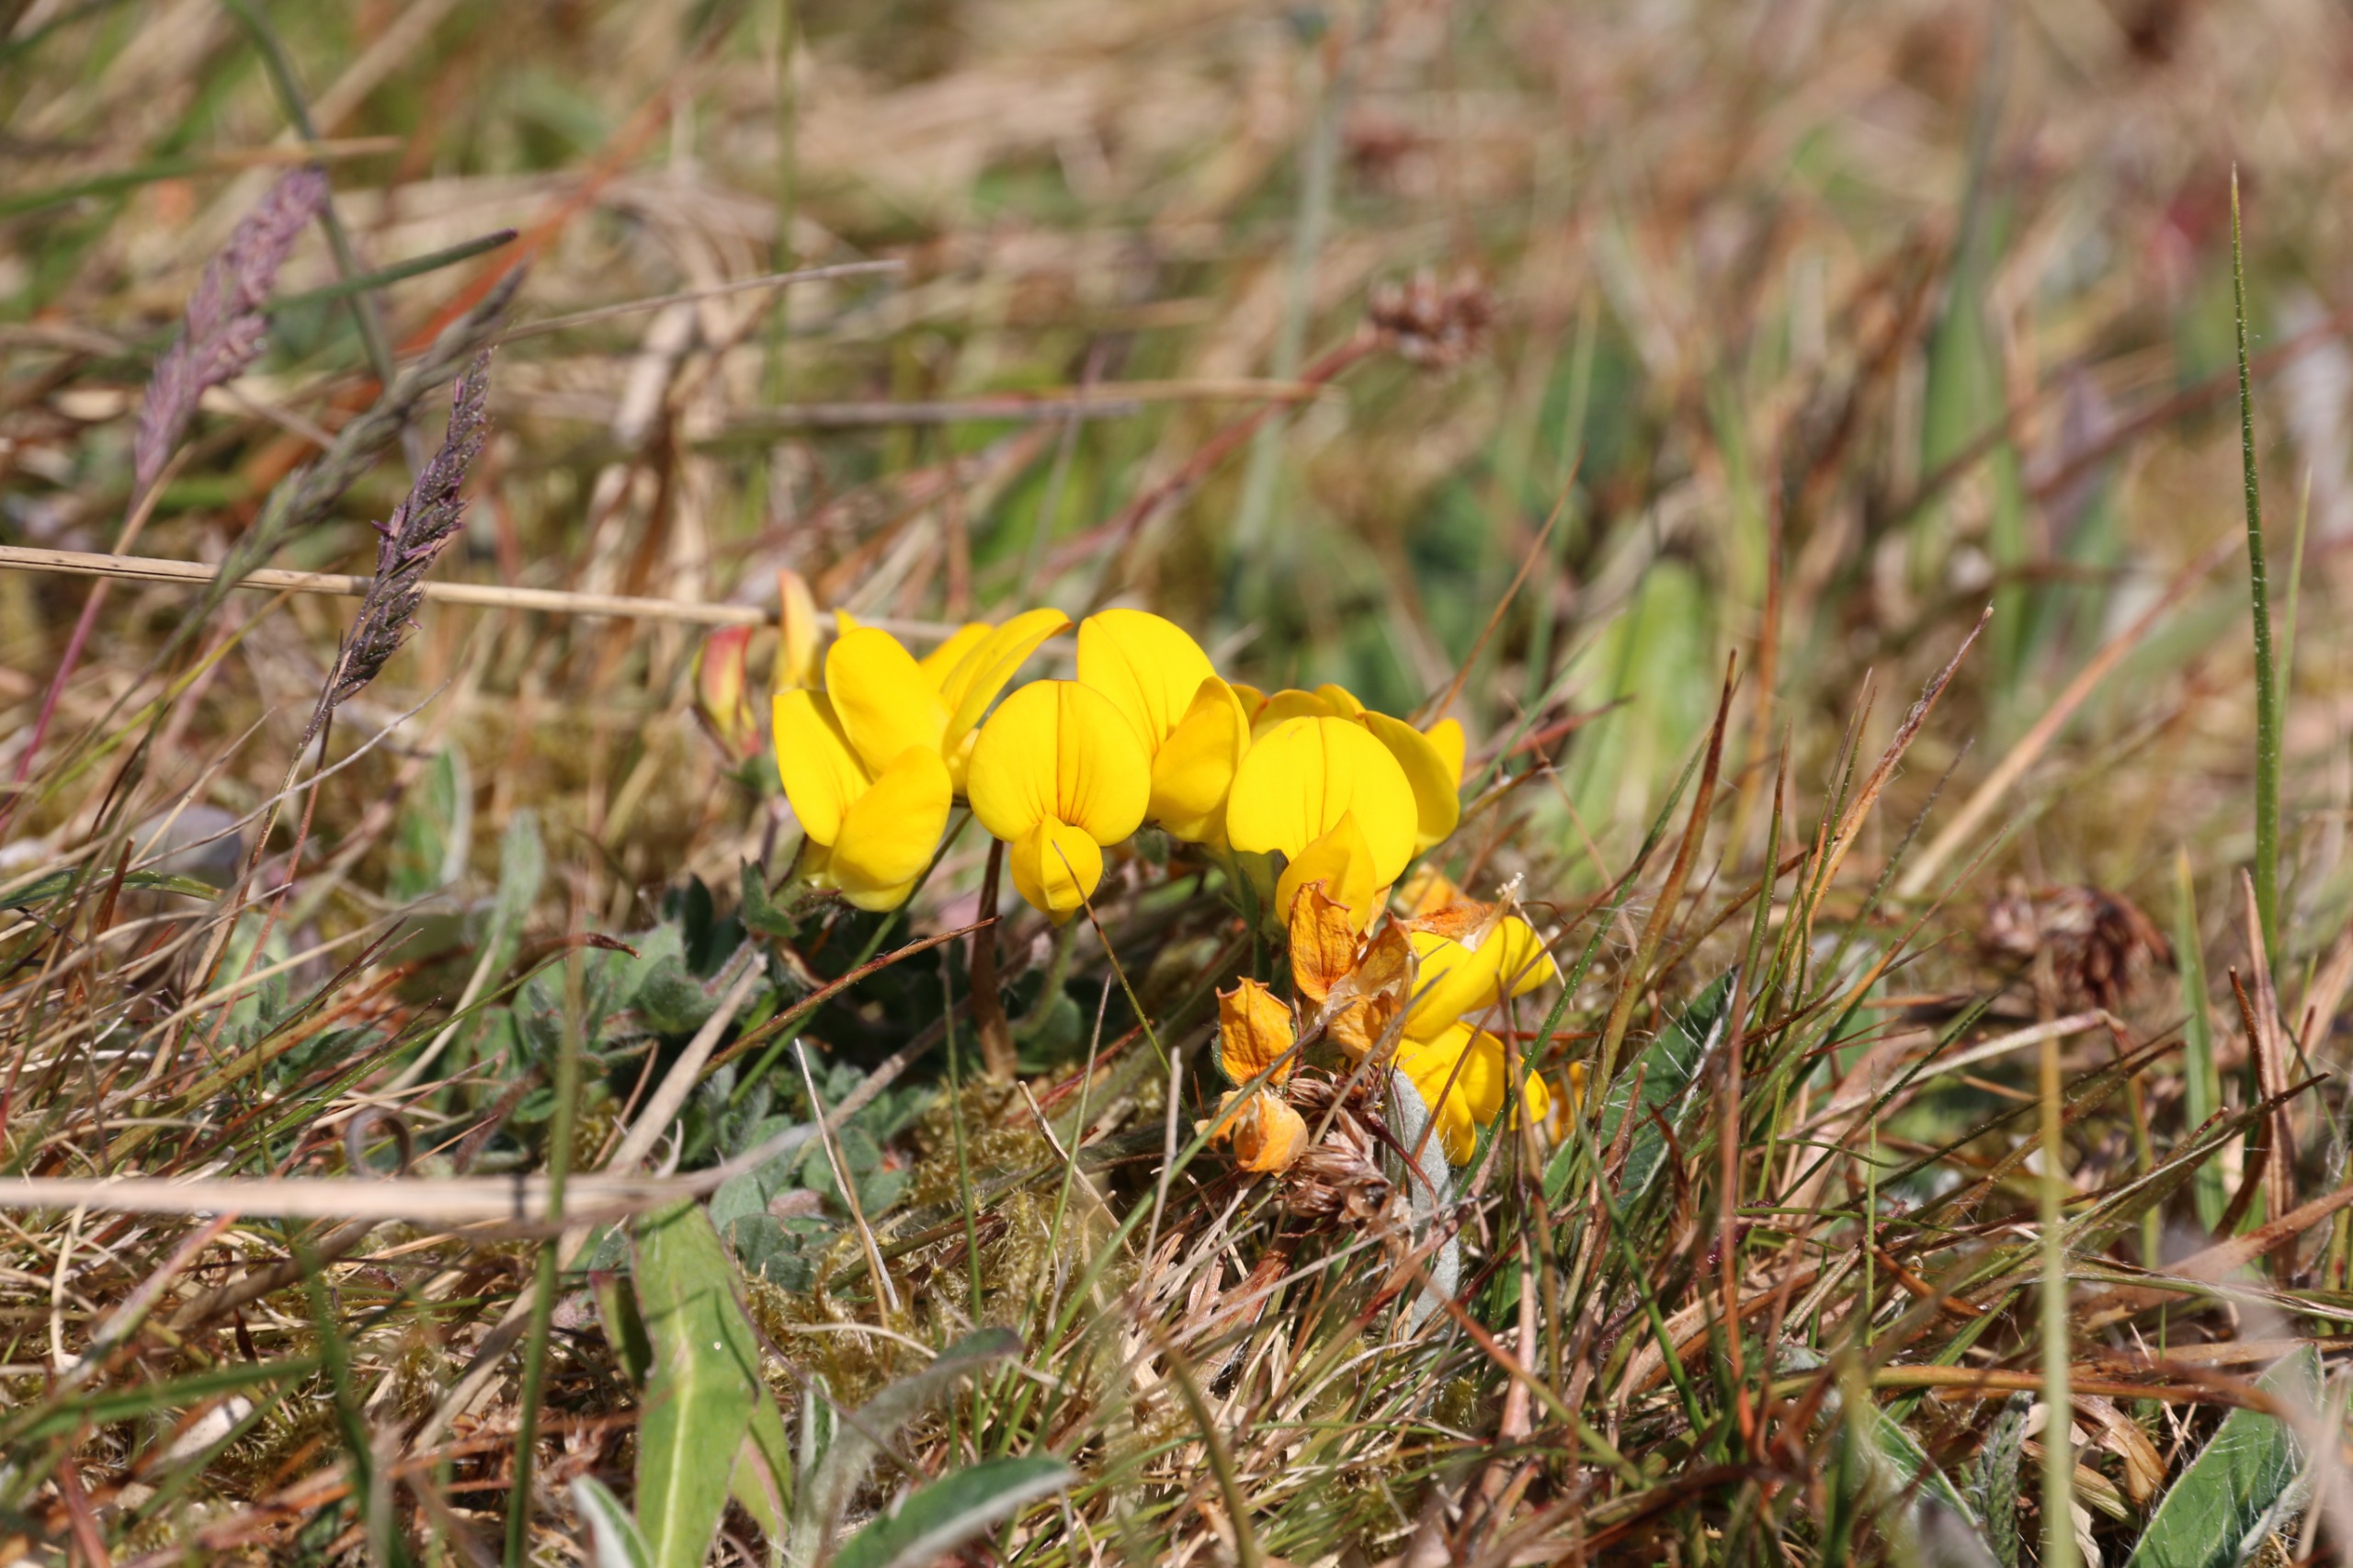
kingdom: Plantae
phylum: Tracheophyta
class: Magnoliopsida
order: Fabales
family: Fabaceae
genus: Lotus
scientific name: Lotus corniculatus
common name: Almindelig kællingetand
